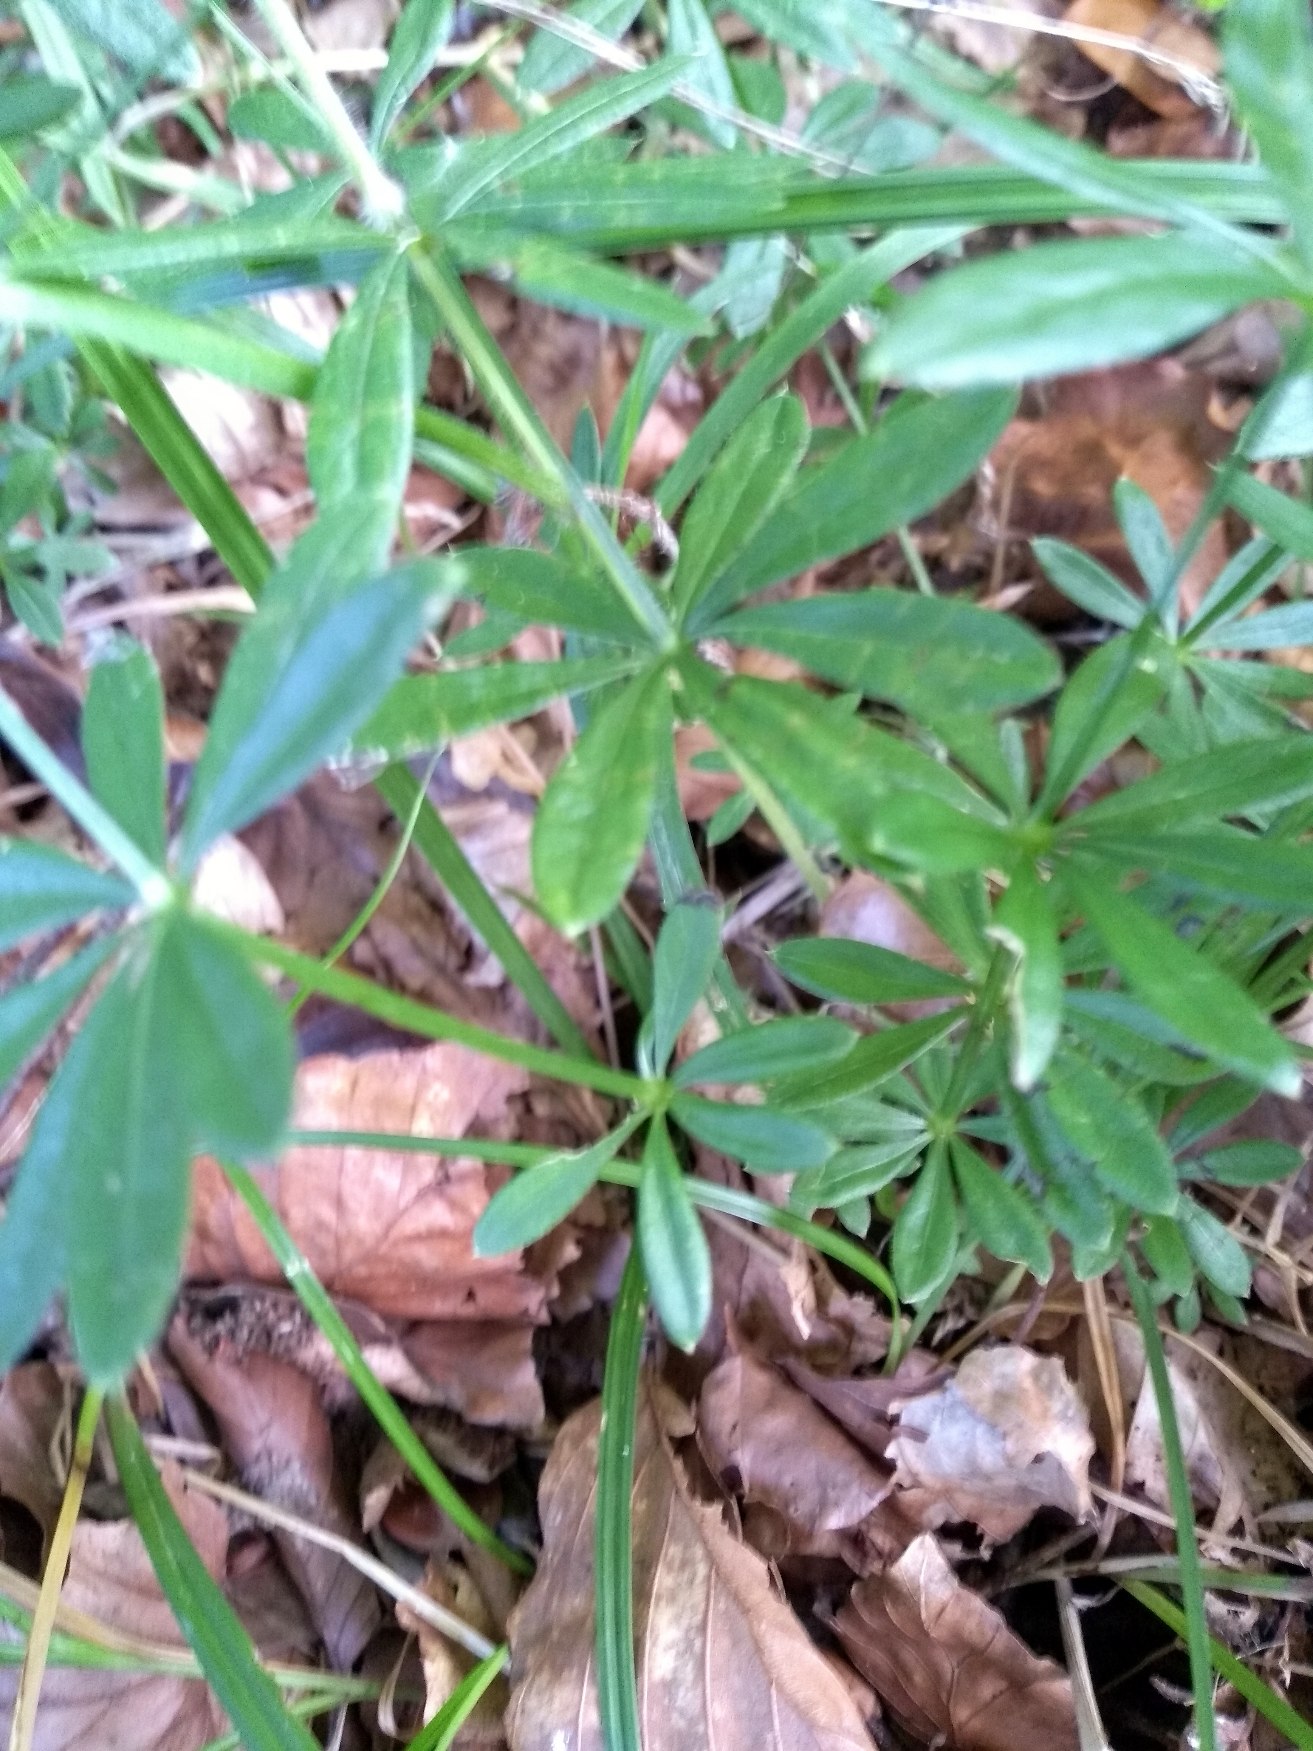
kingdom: Plantae
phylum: Tracheophyta
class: Magnoliopsida
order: Gentianales
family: Rubiaceae
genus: Galium
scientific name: Galium odoratum
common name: Skovmærke
